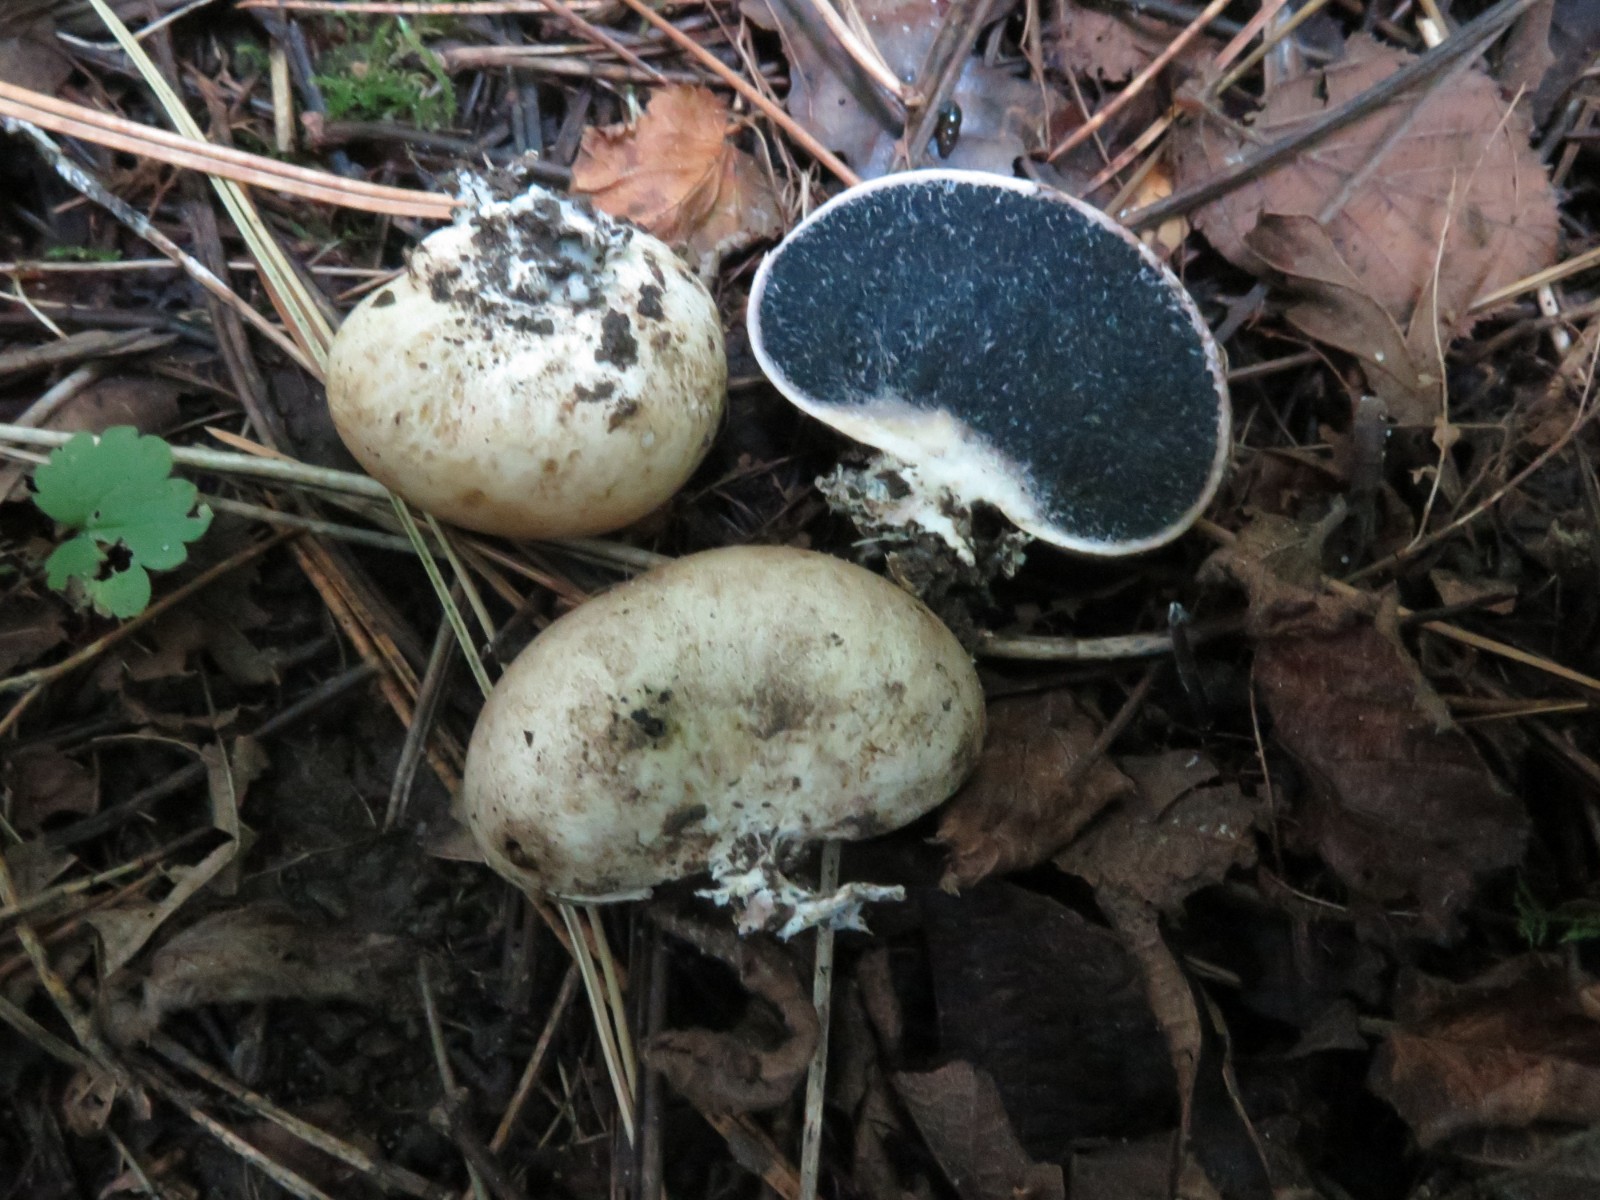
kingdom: Fungi
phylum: Basidiomycota
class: Agaricomycetes
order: Boletales
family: Sclerodermataceae
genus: Scleroderma
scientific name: Scleroderma verrucosum
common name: stilket bruskbold
